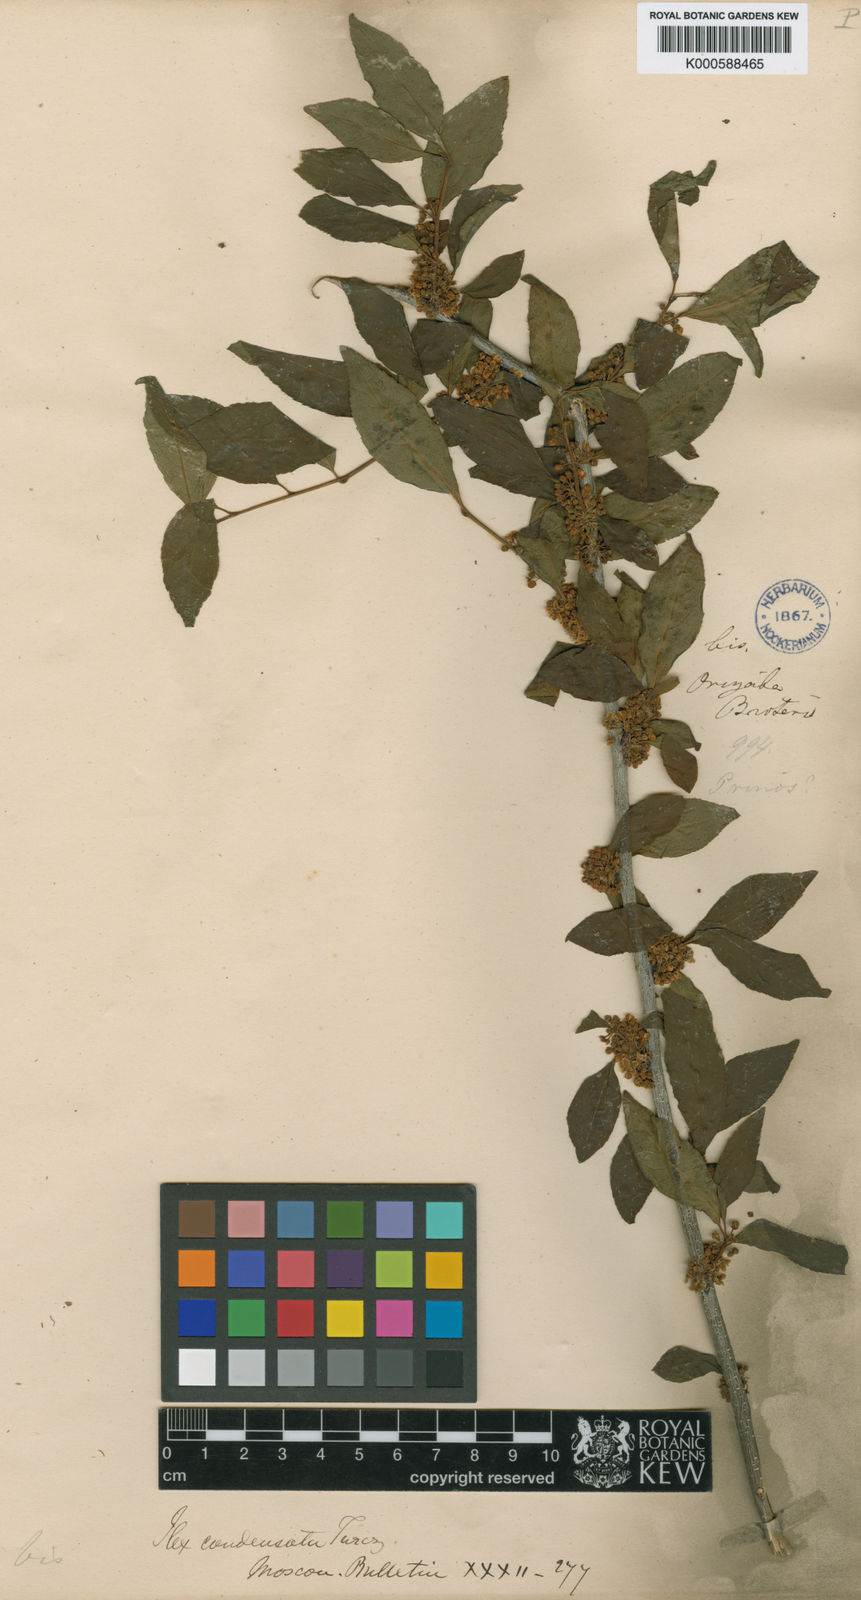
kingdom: Plantae
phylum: Tracheophyta
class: Magnoliopsida
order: Aquifoliales
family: Aquifoliaceae
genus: Ilex
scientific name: Ilex ambigua
